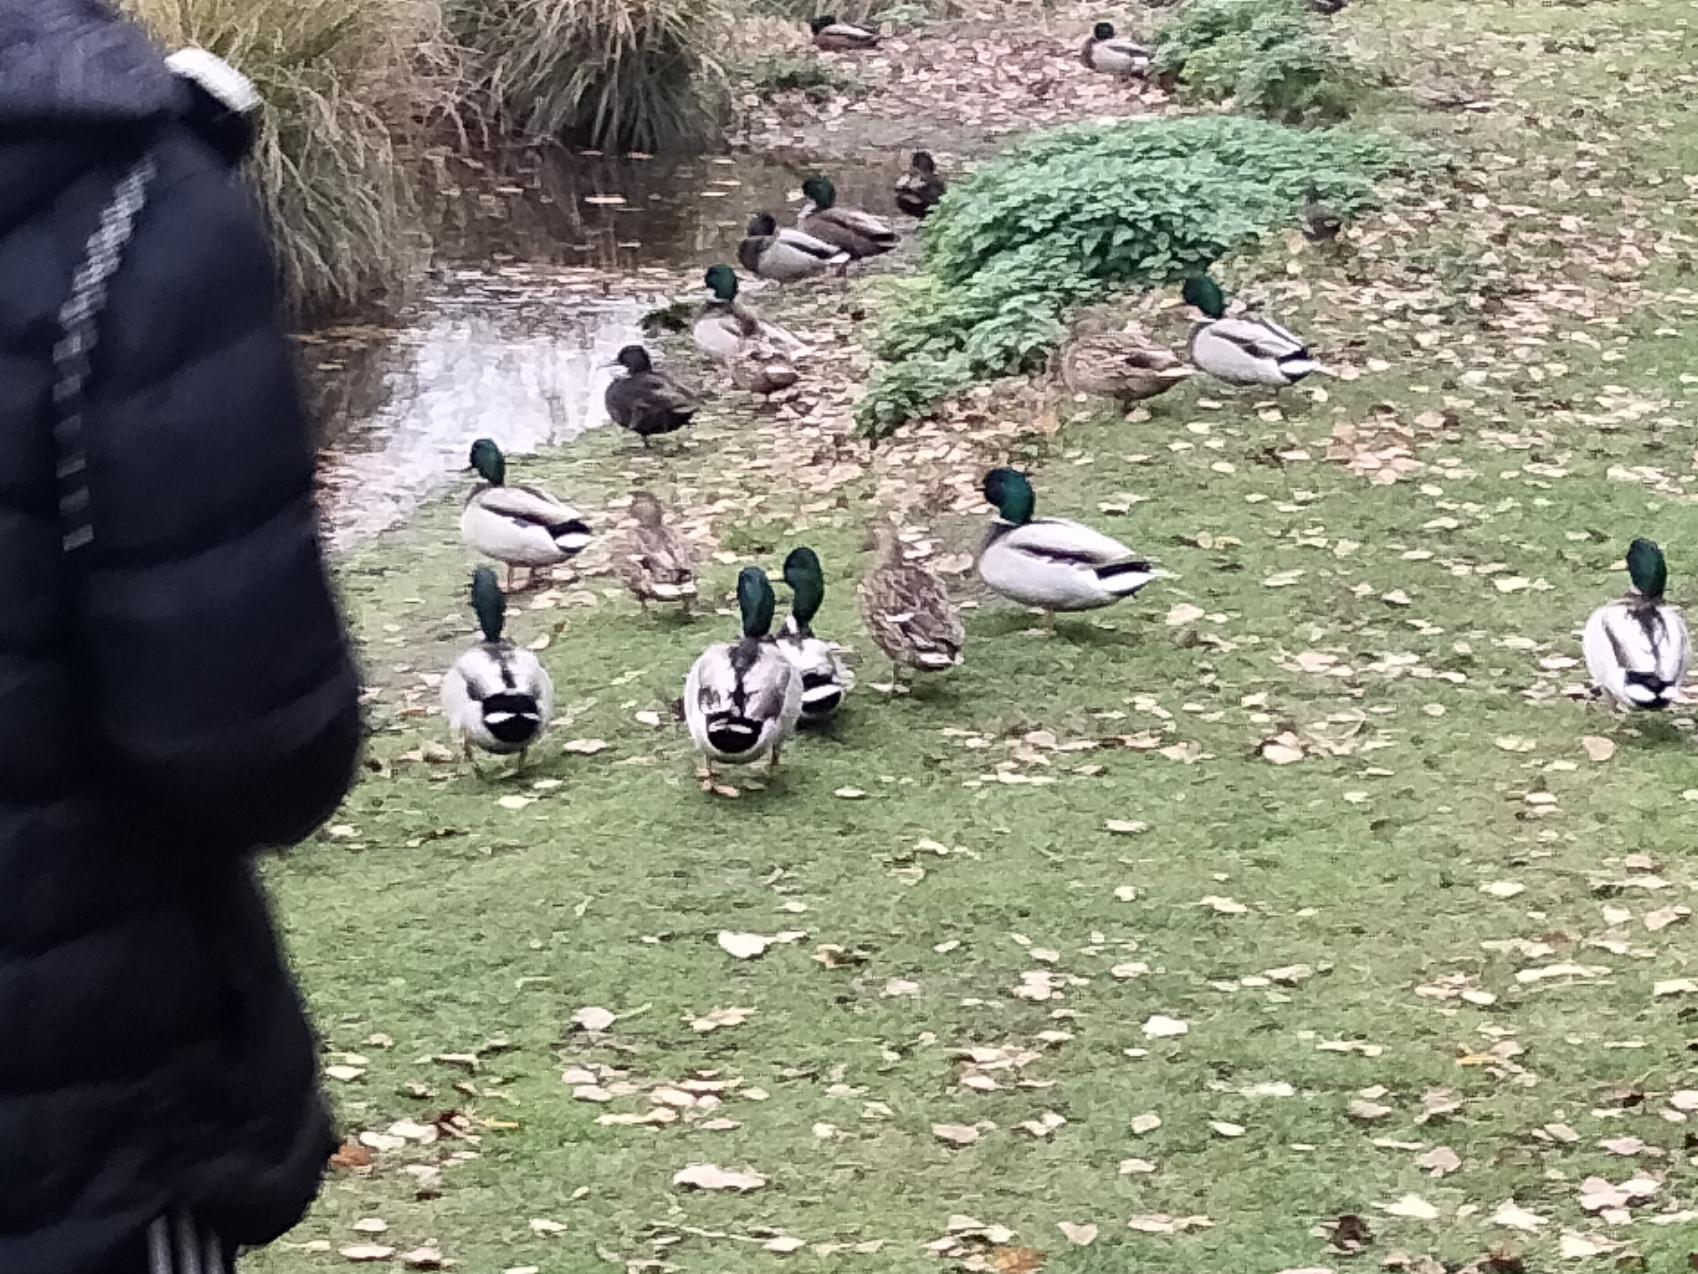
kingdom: Animalia
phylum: Chordata
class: Aves
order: Anseriformes
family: Anatidae
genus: Anas
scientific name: Anas platyrhynchos
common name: Gråand
